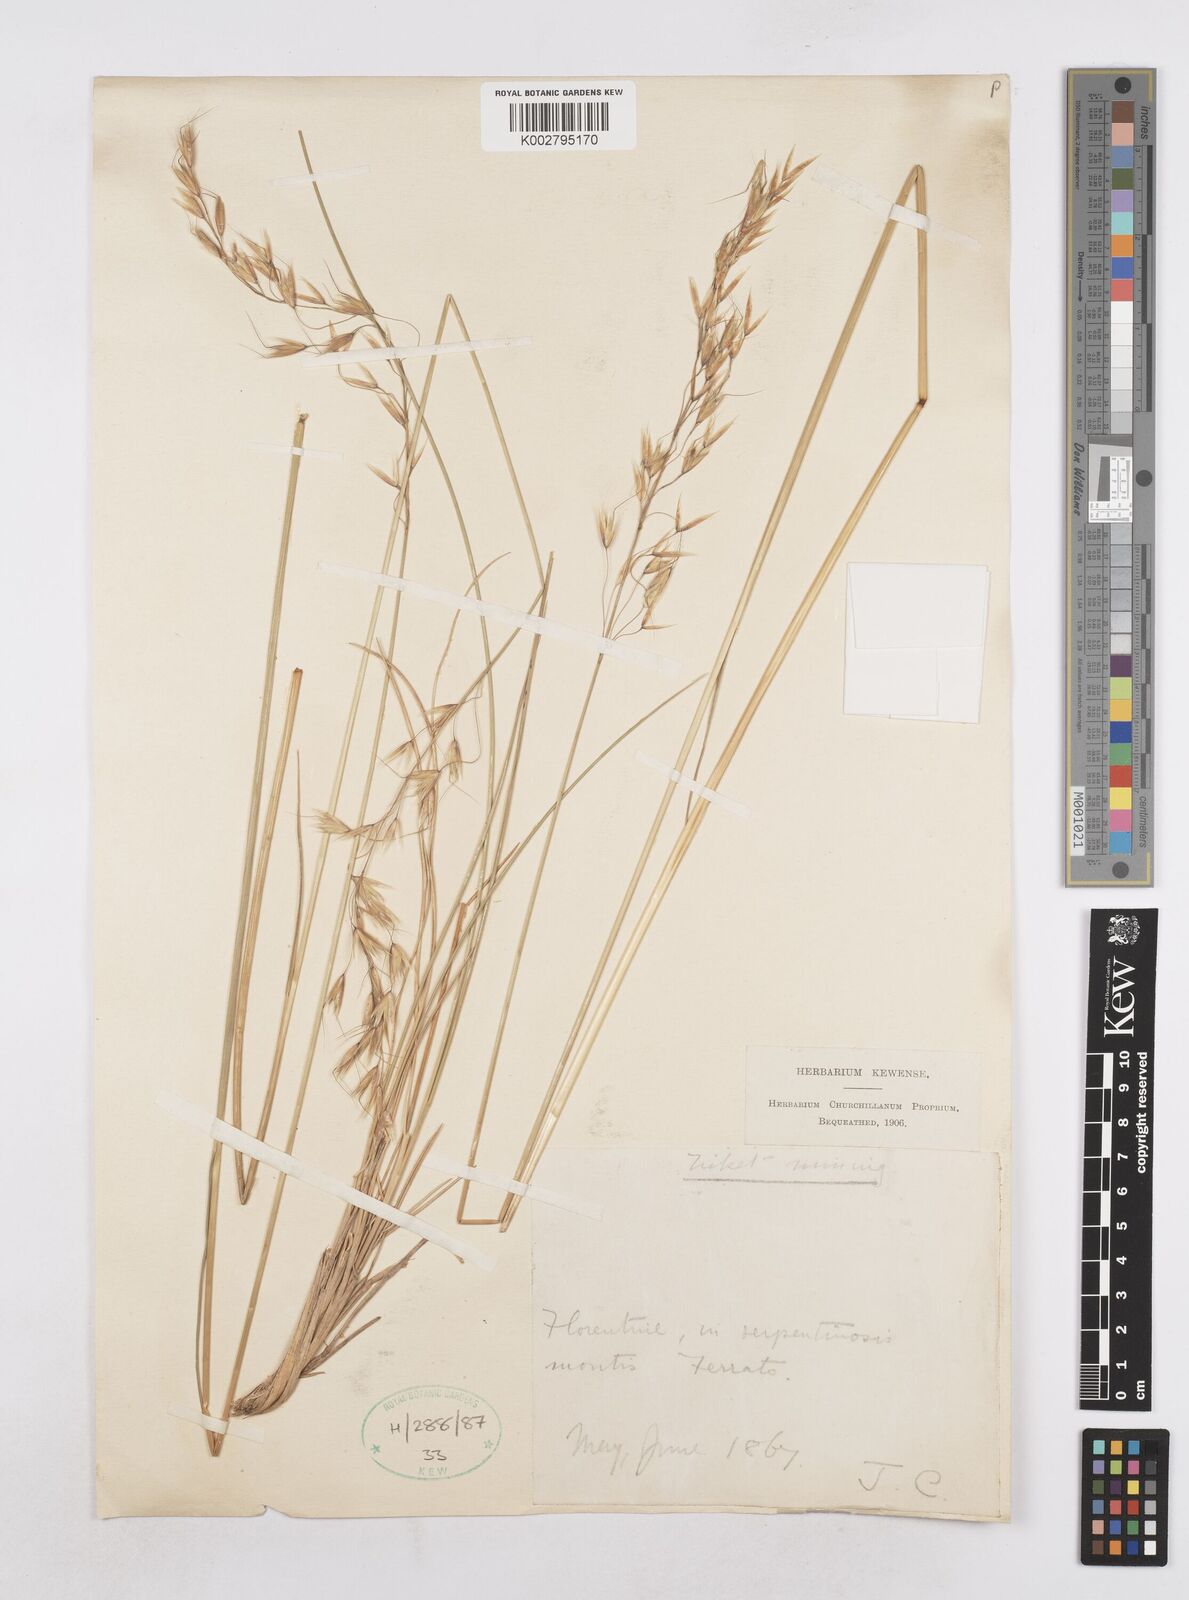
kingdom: Plantae
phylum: Tracheophyta
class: Liliopsida
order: Poales
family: Poaceae
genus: Helictochloa
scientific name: Helictochloa pratensis
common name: Meadow oat grass
